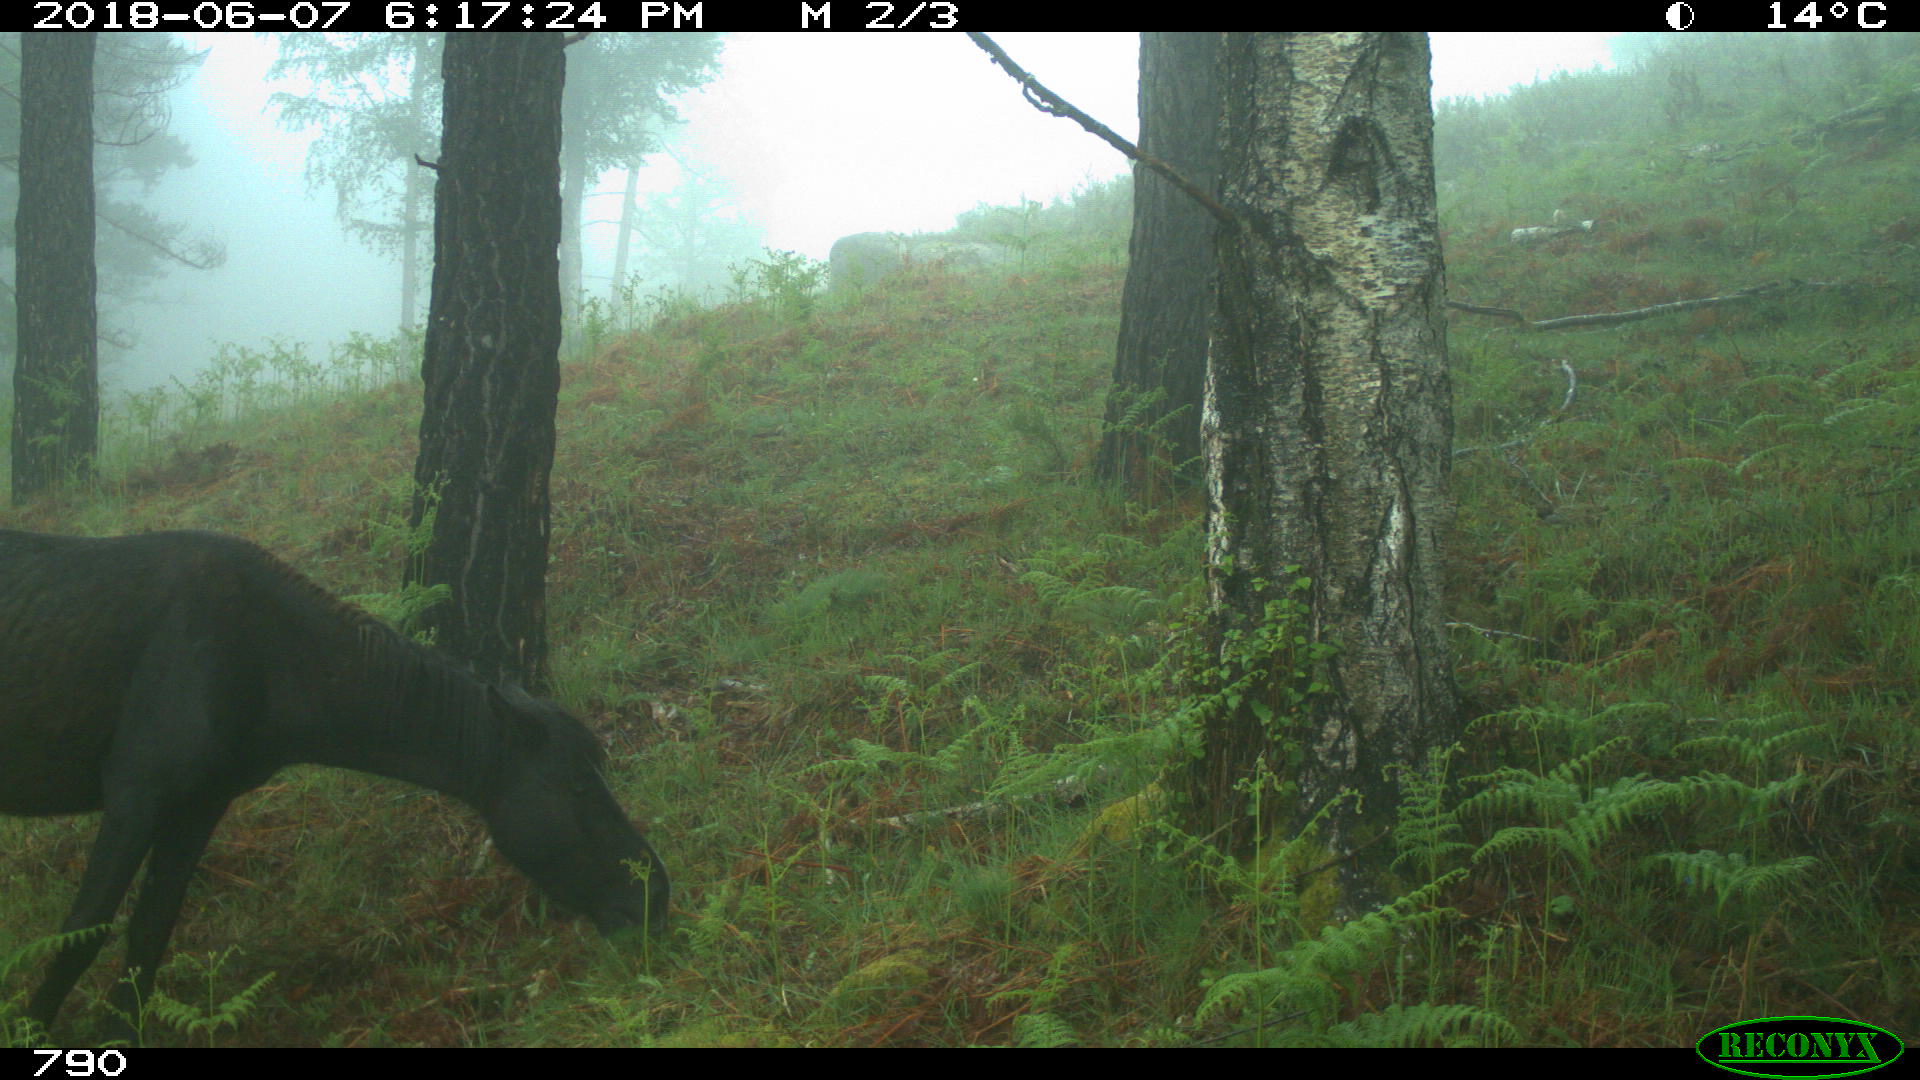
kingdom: Animalia
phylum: Chordata
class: Mammalia
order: Perissodactyla
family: Equidae
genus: Equus
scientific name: Equus caballus
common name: Horse
